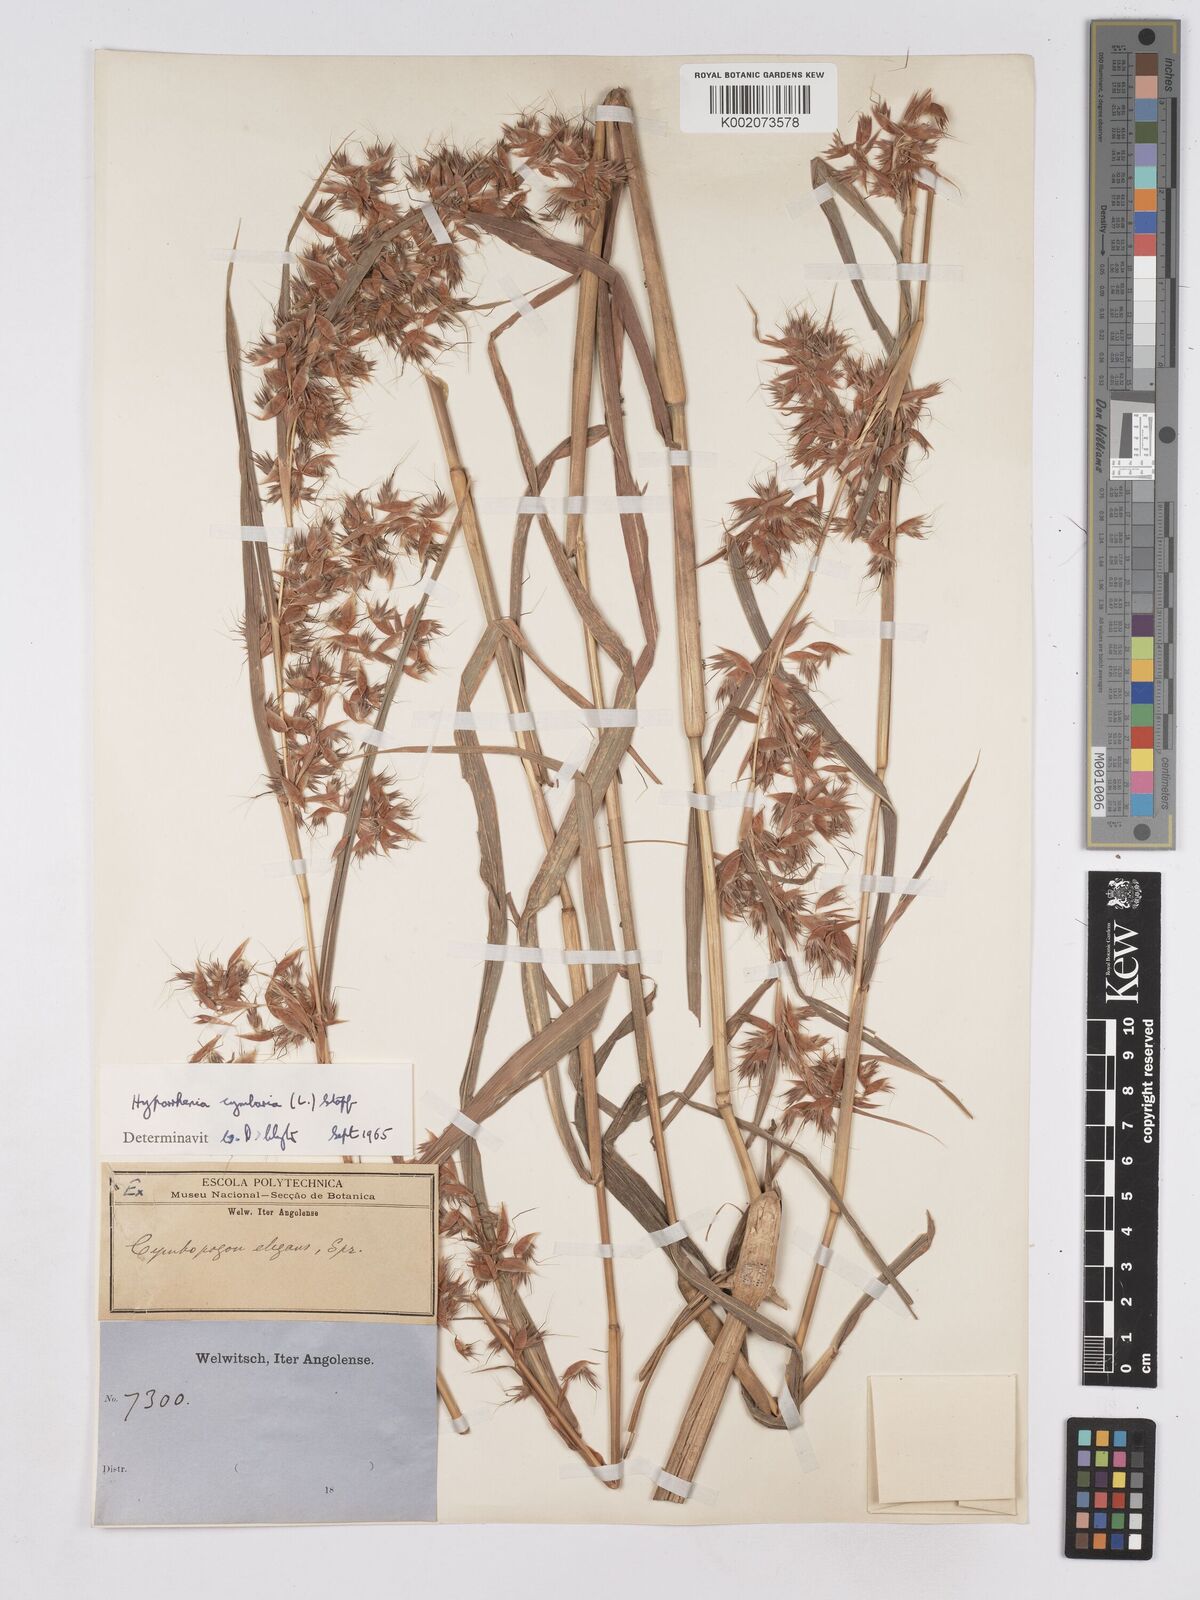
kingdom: Plantae
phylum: Tracheophyta
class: Liliopsida
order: Poales
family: Poaceae
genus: Hyparrhenia
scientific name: Hyparrhenia cymbaria
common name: Boat thatching grass
